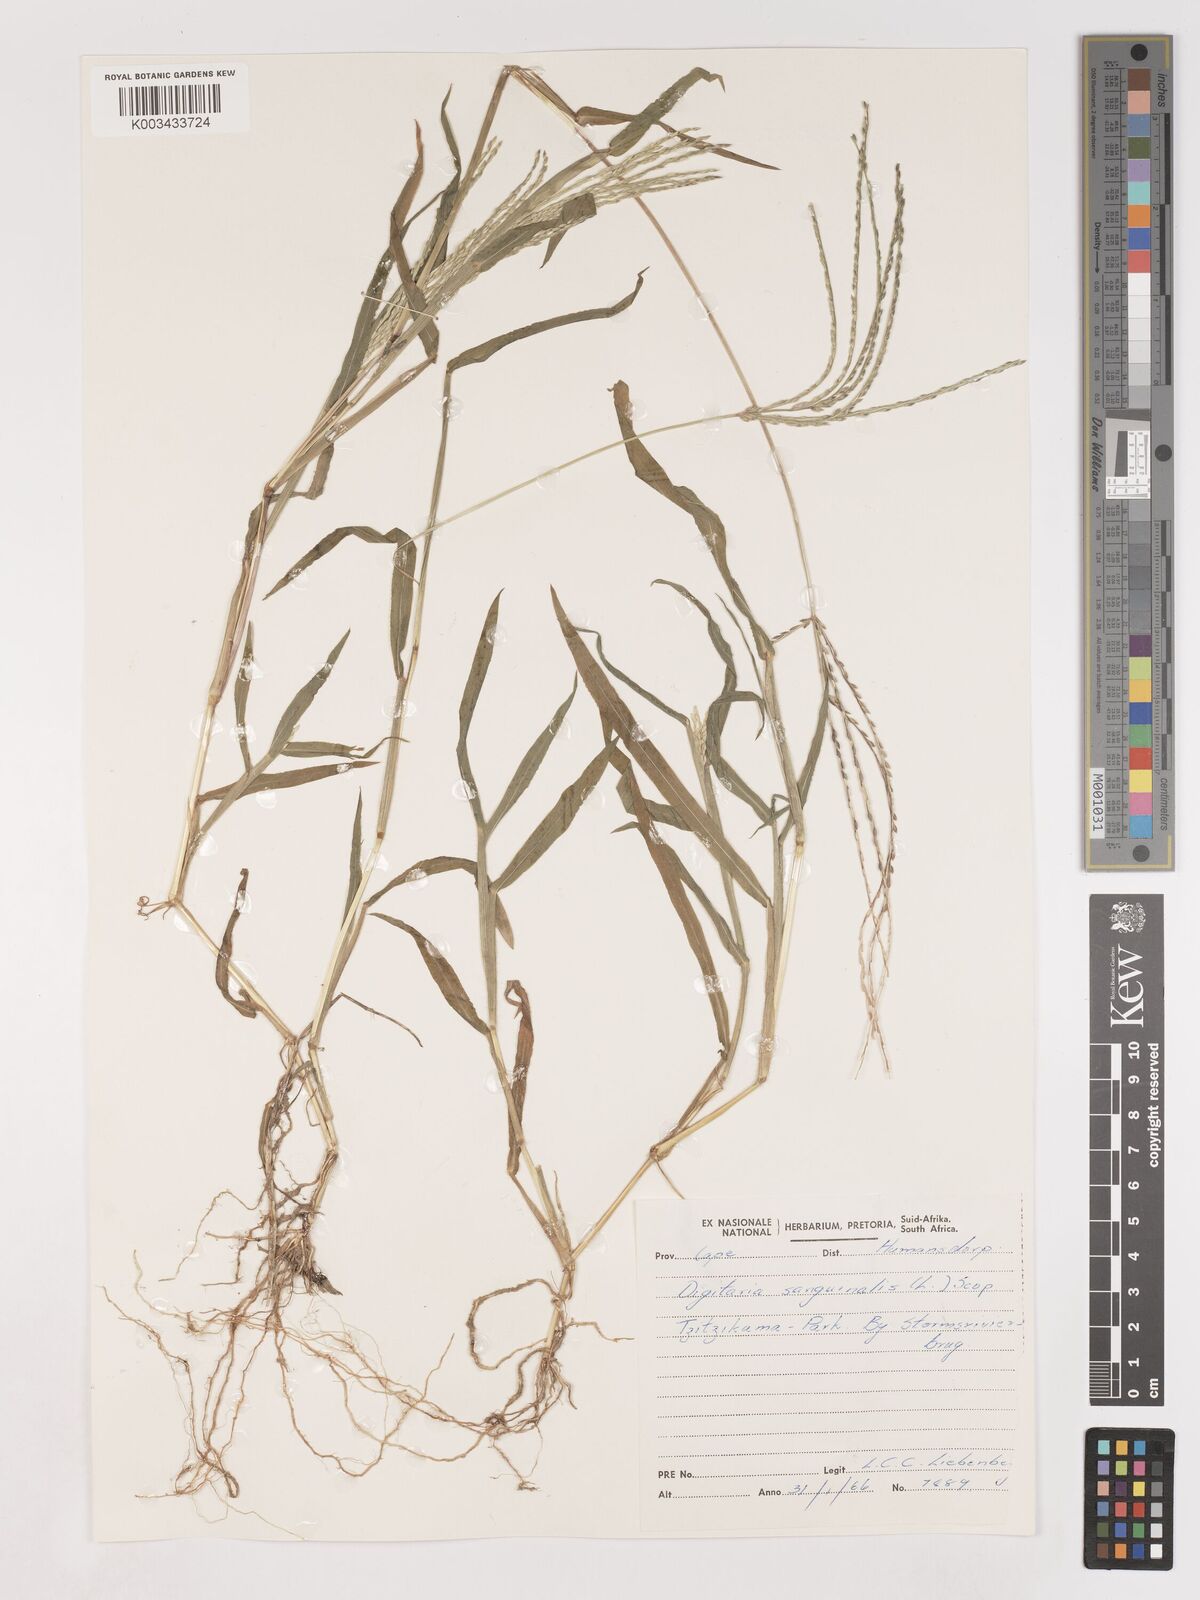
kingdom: Plantae
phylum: Tracheophyta
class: Liliopsida
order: Poales
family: Poaceae
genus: Digitaria
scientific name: Digitaria sanguinalis
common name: Hairy crabgrass
